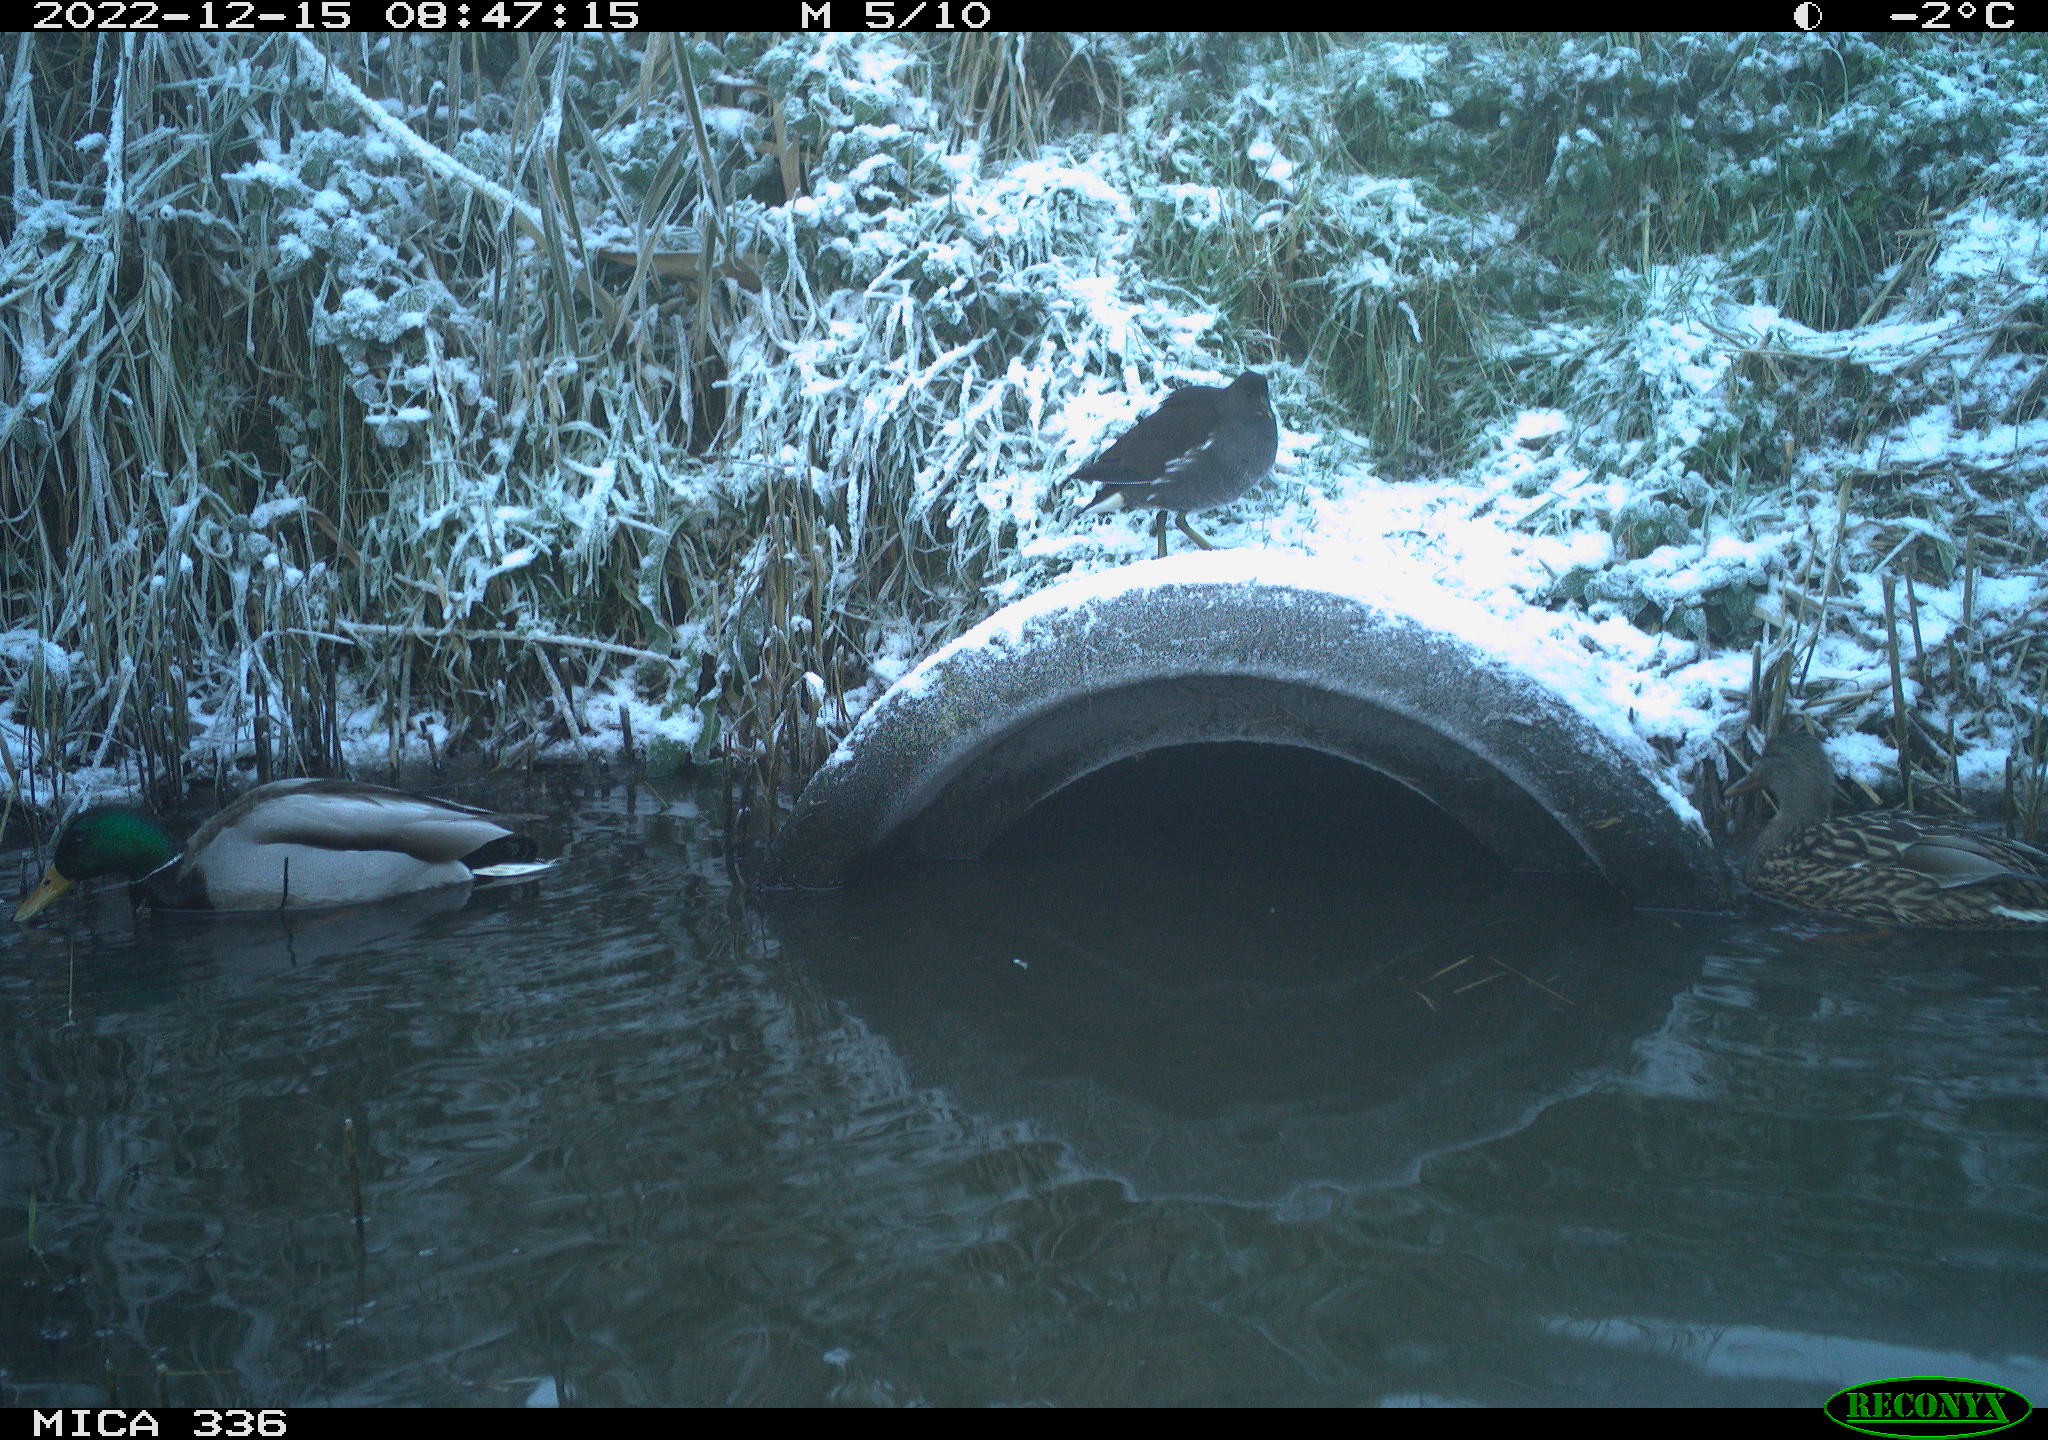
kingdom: Animalia
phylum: Chordata
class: Aves
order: Anseriformes
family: Anatidae
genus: Anas
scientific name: Anas
